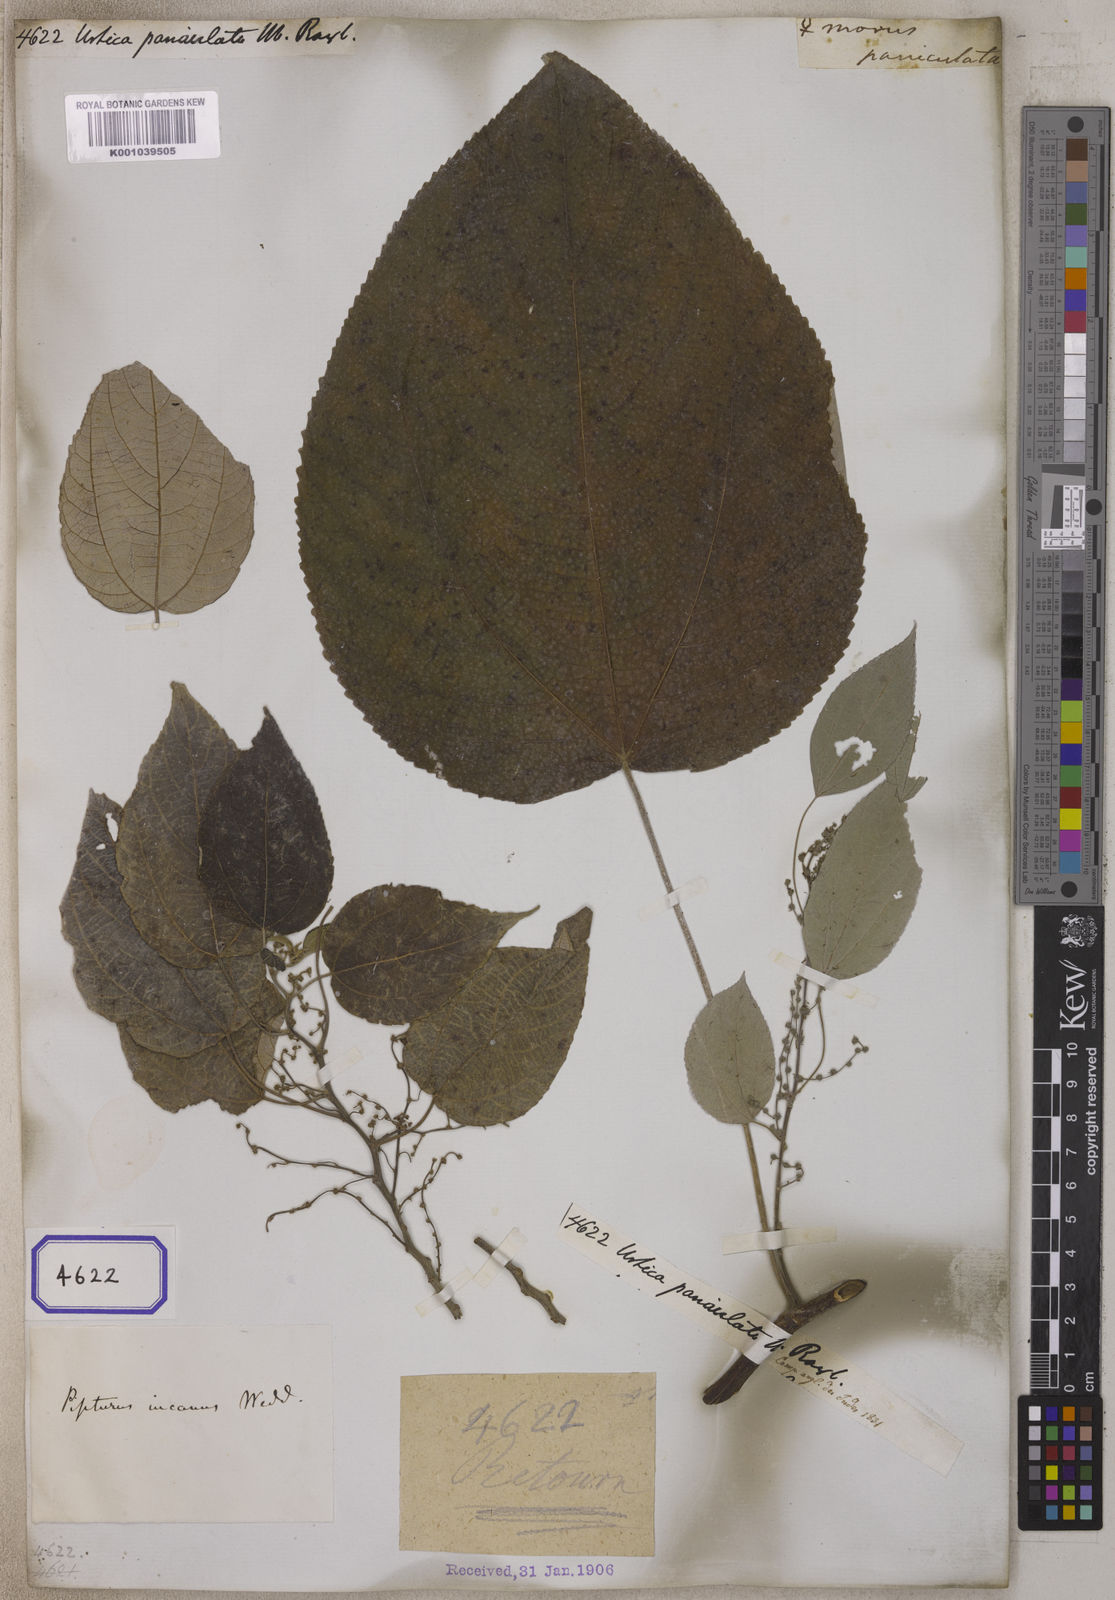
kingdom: Plantae
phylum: Tracheophyta
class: Magnoliopsida
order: Rosales
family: Urticaceae
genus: Urtica
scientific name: Urtica wallichiana
